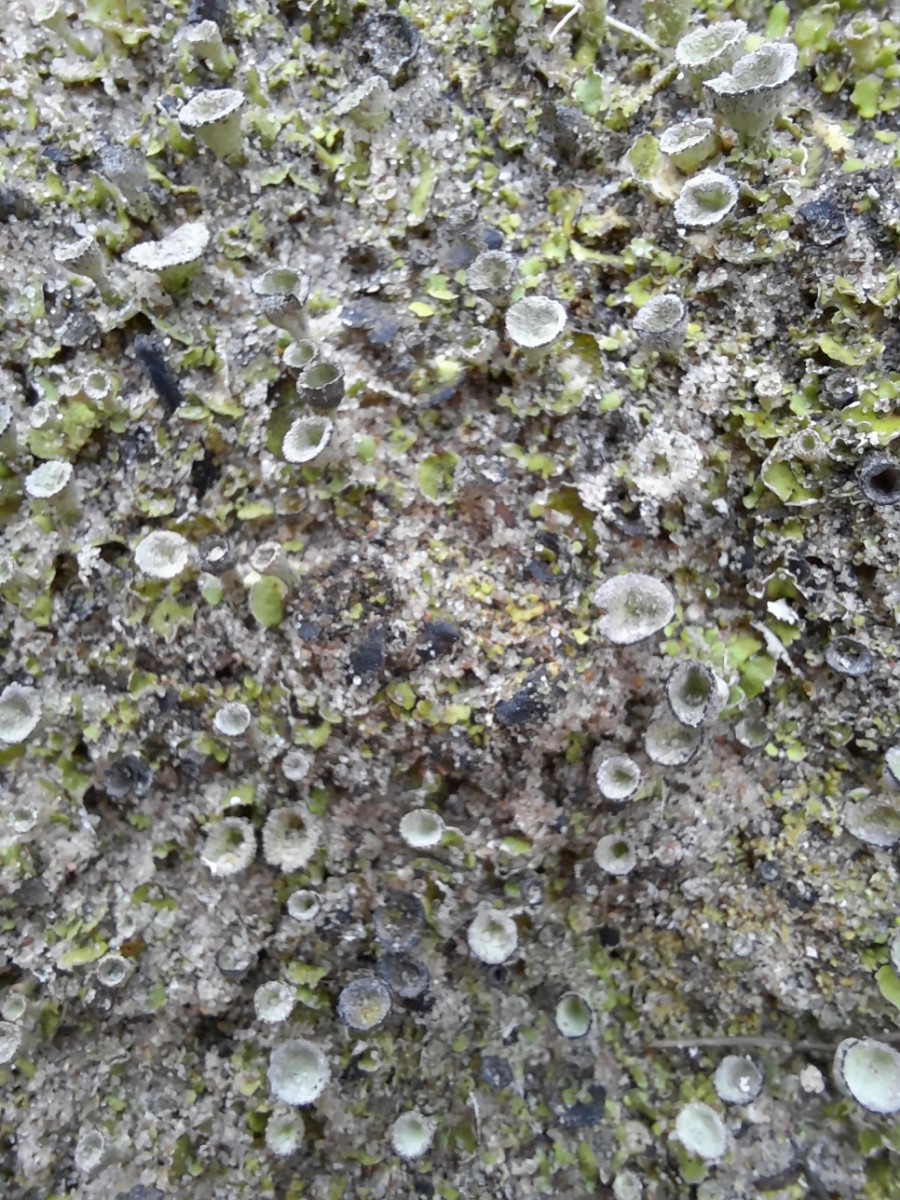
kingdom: Fungi
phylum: Ascomycota
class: Lecanoromycetes
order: Lecanorales
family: Cladoniaceae
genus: Cladonia
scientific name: Cladonia humilis
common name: lav bægerlav
